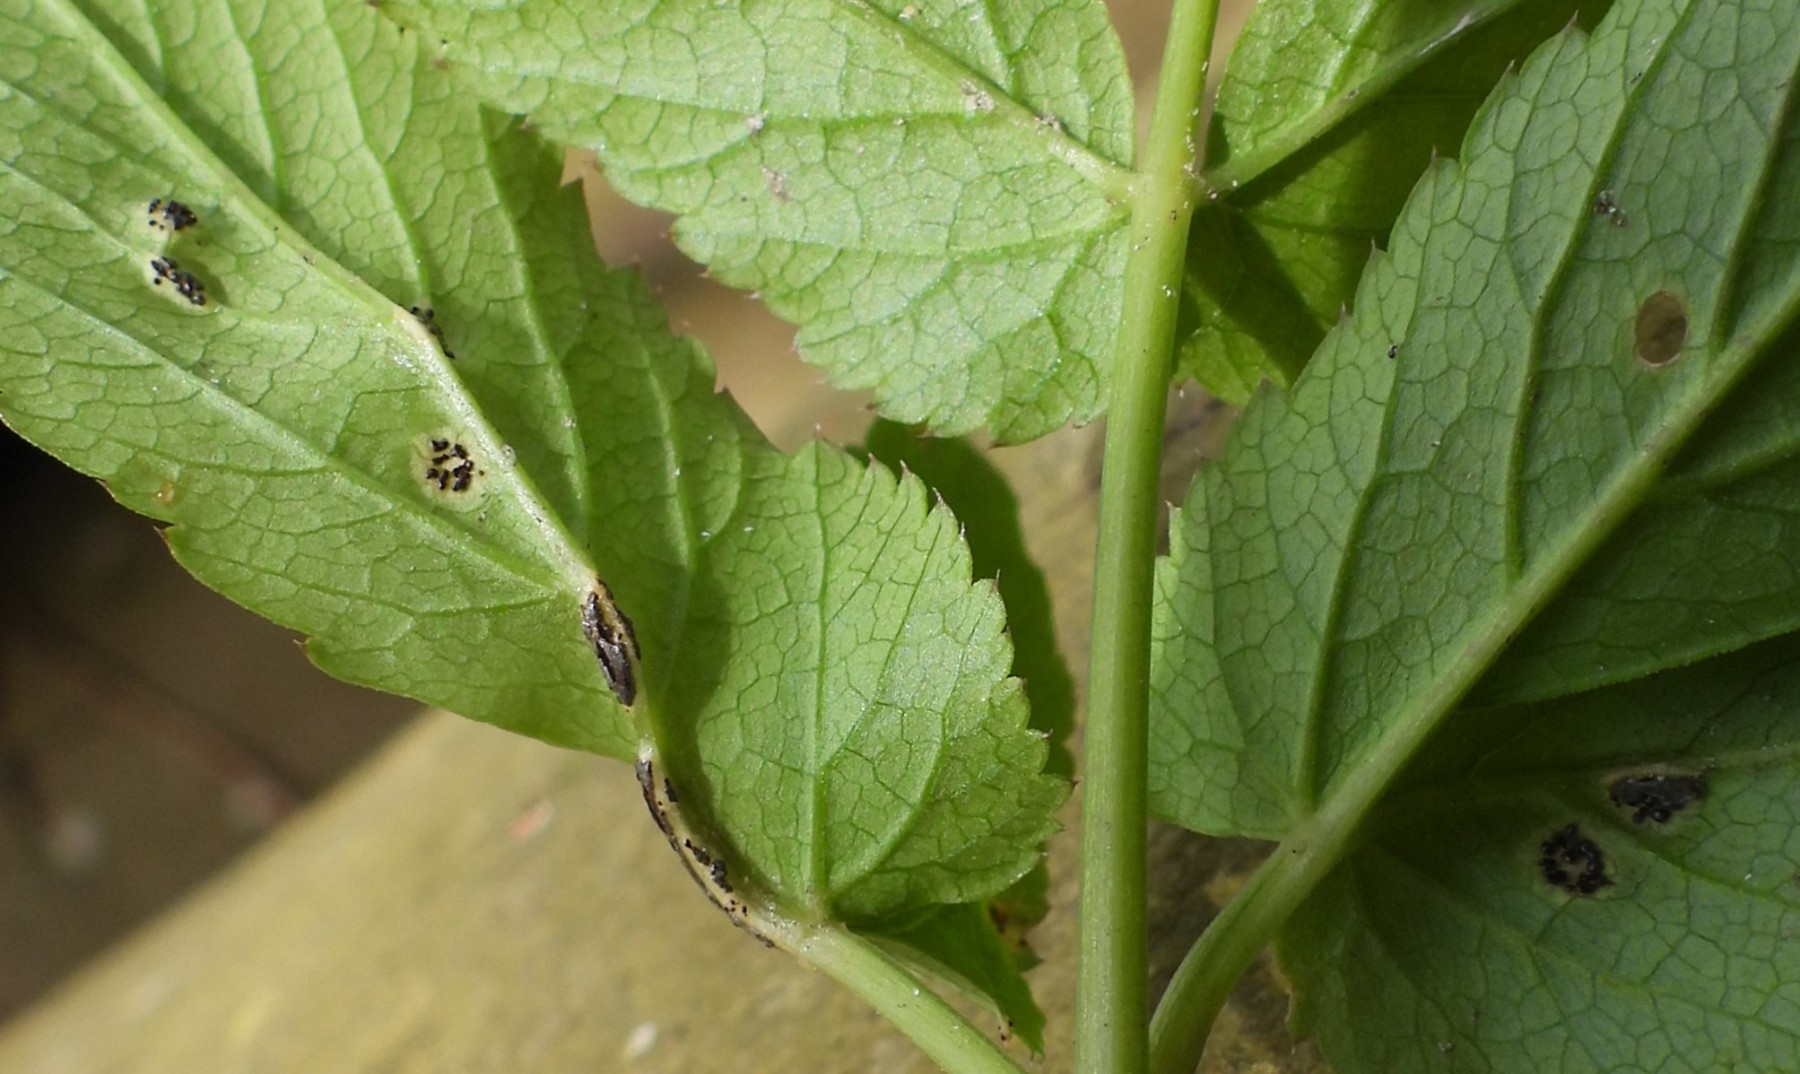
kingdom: Fungi
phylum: Basidiomycota
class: Pucciniomycetes
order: Pucciniales
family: Pucciniaceae
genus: Puccinia
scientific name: Puccinia
